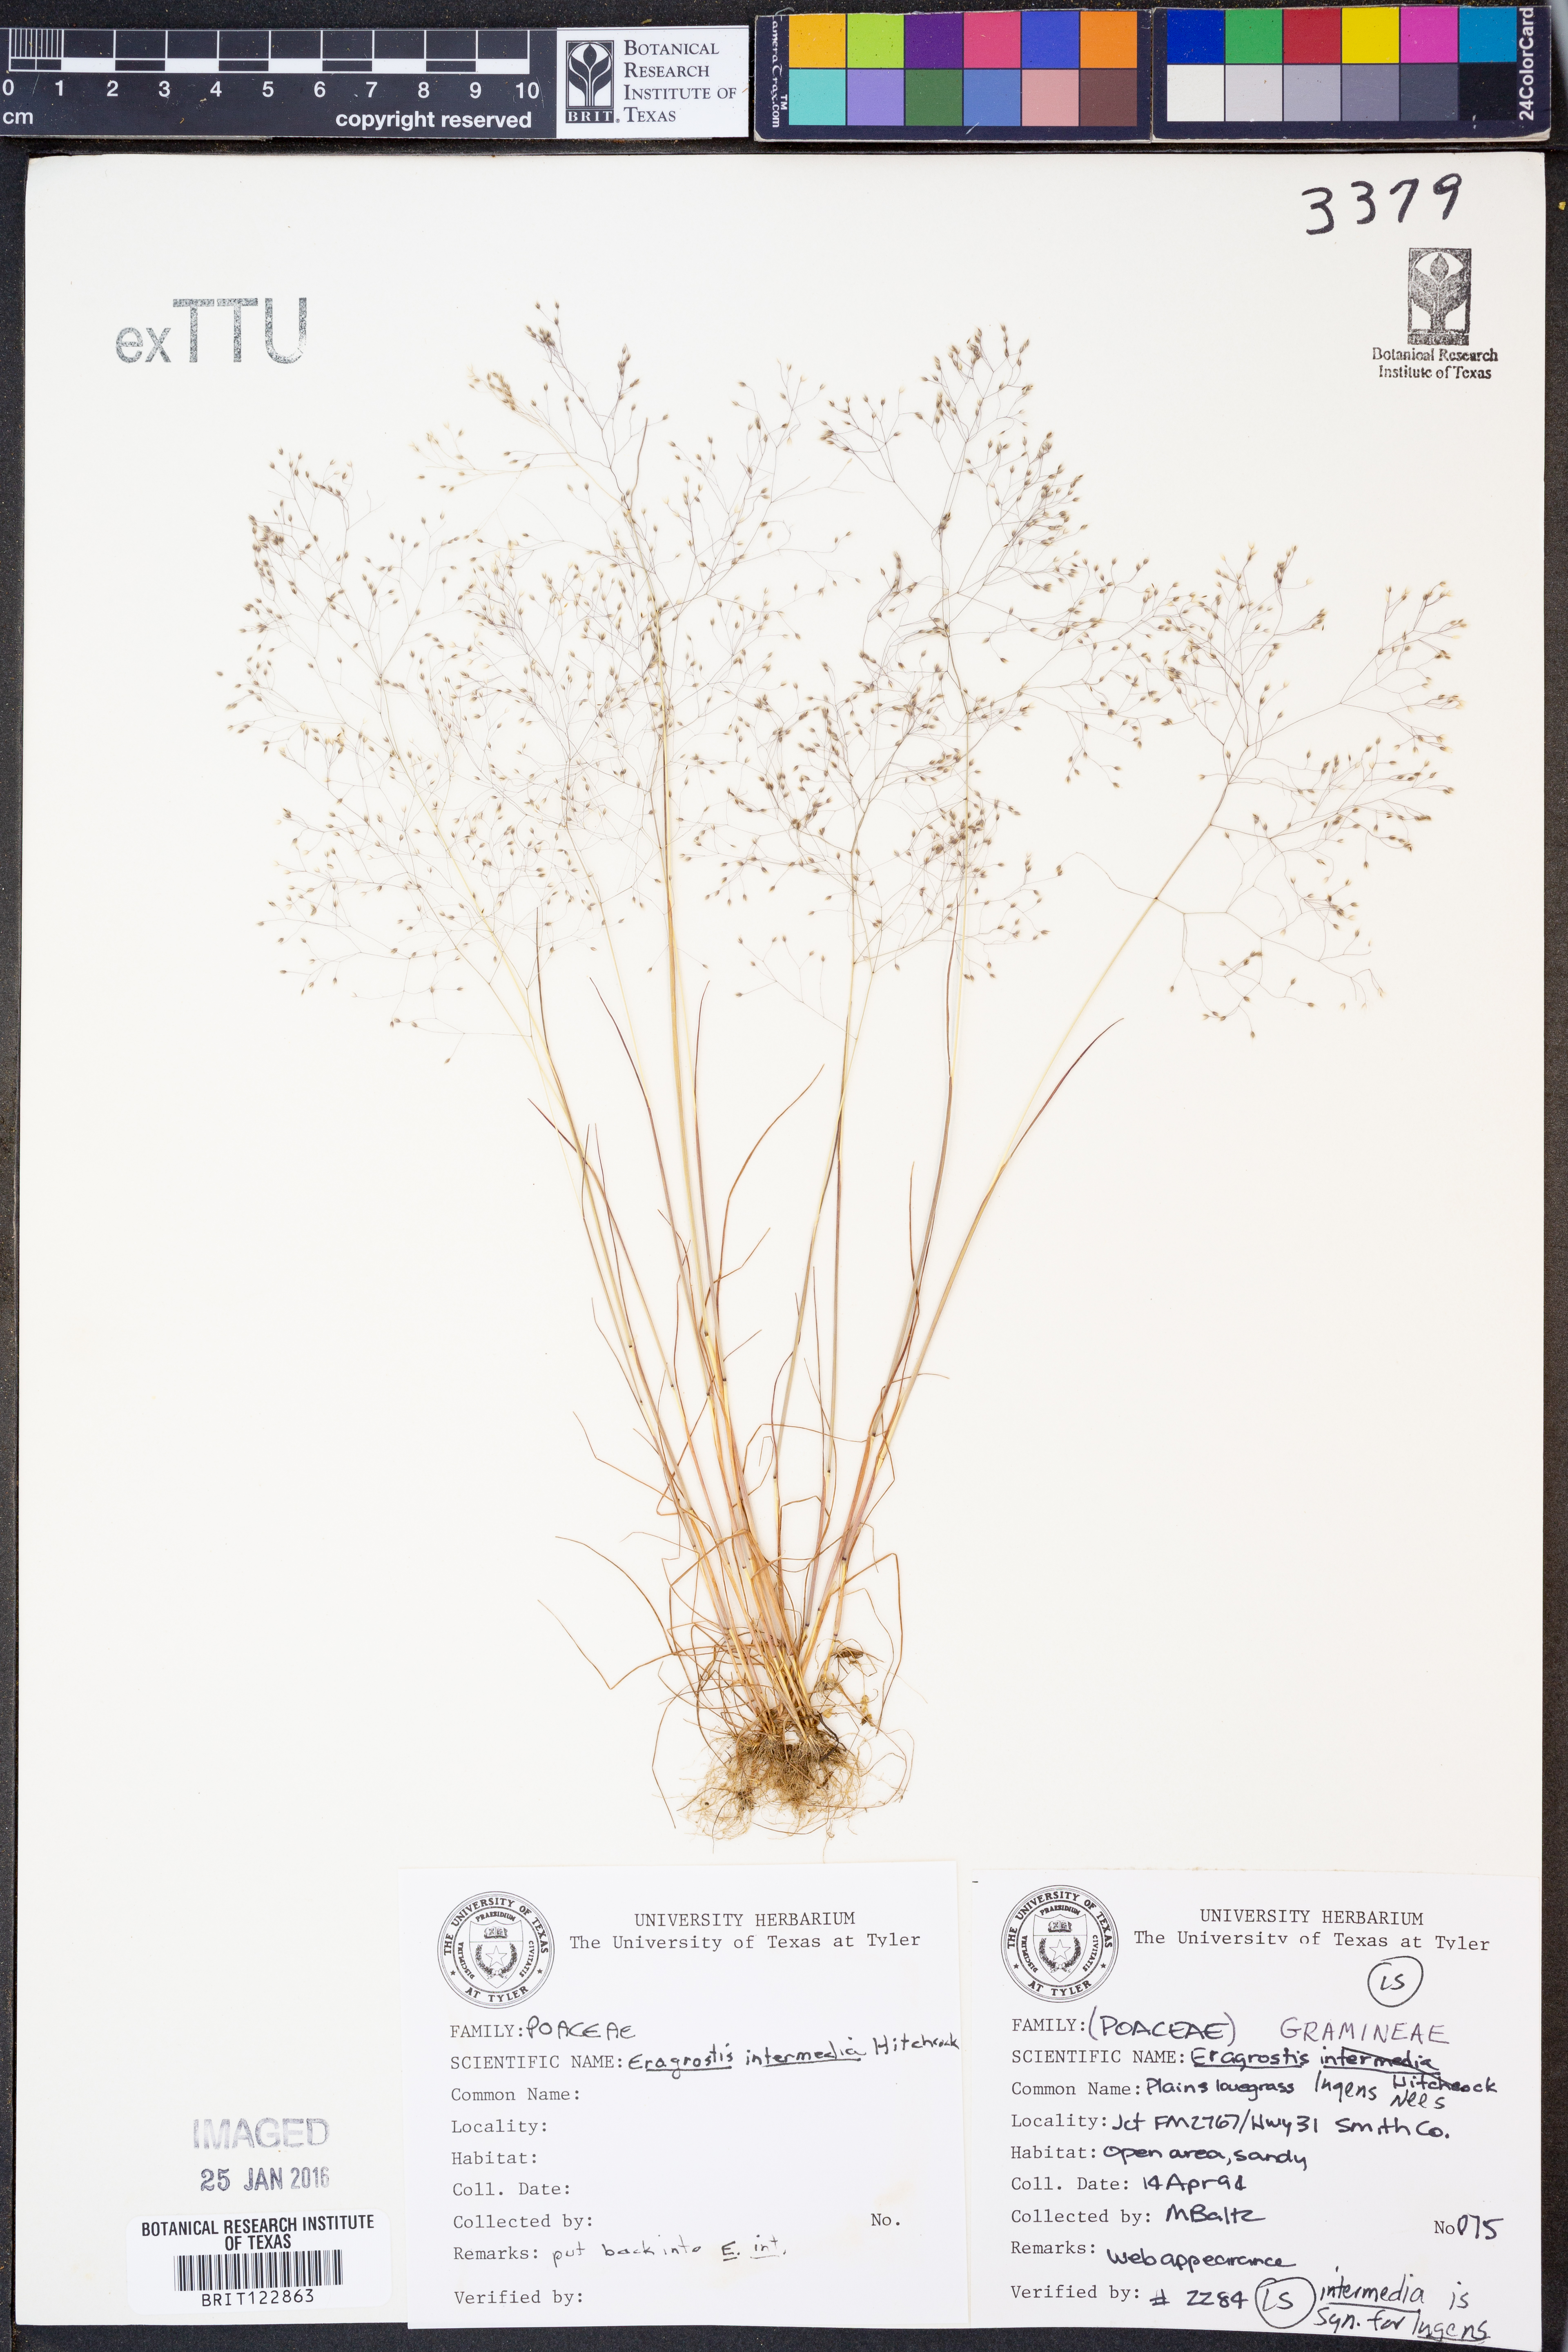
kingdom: Plantae
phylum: Tracheophyta
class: Liliopsida
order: Poales
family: Poaceae
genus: Eragrostis
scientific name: Eragrostis intermedia
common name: Plains love grass
